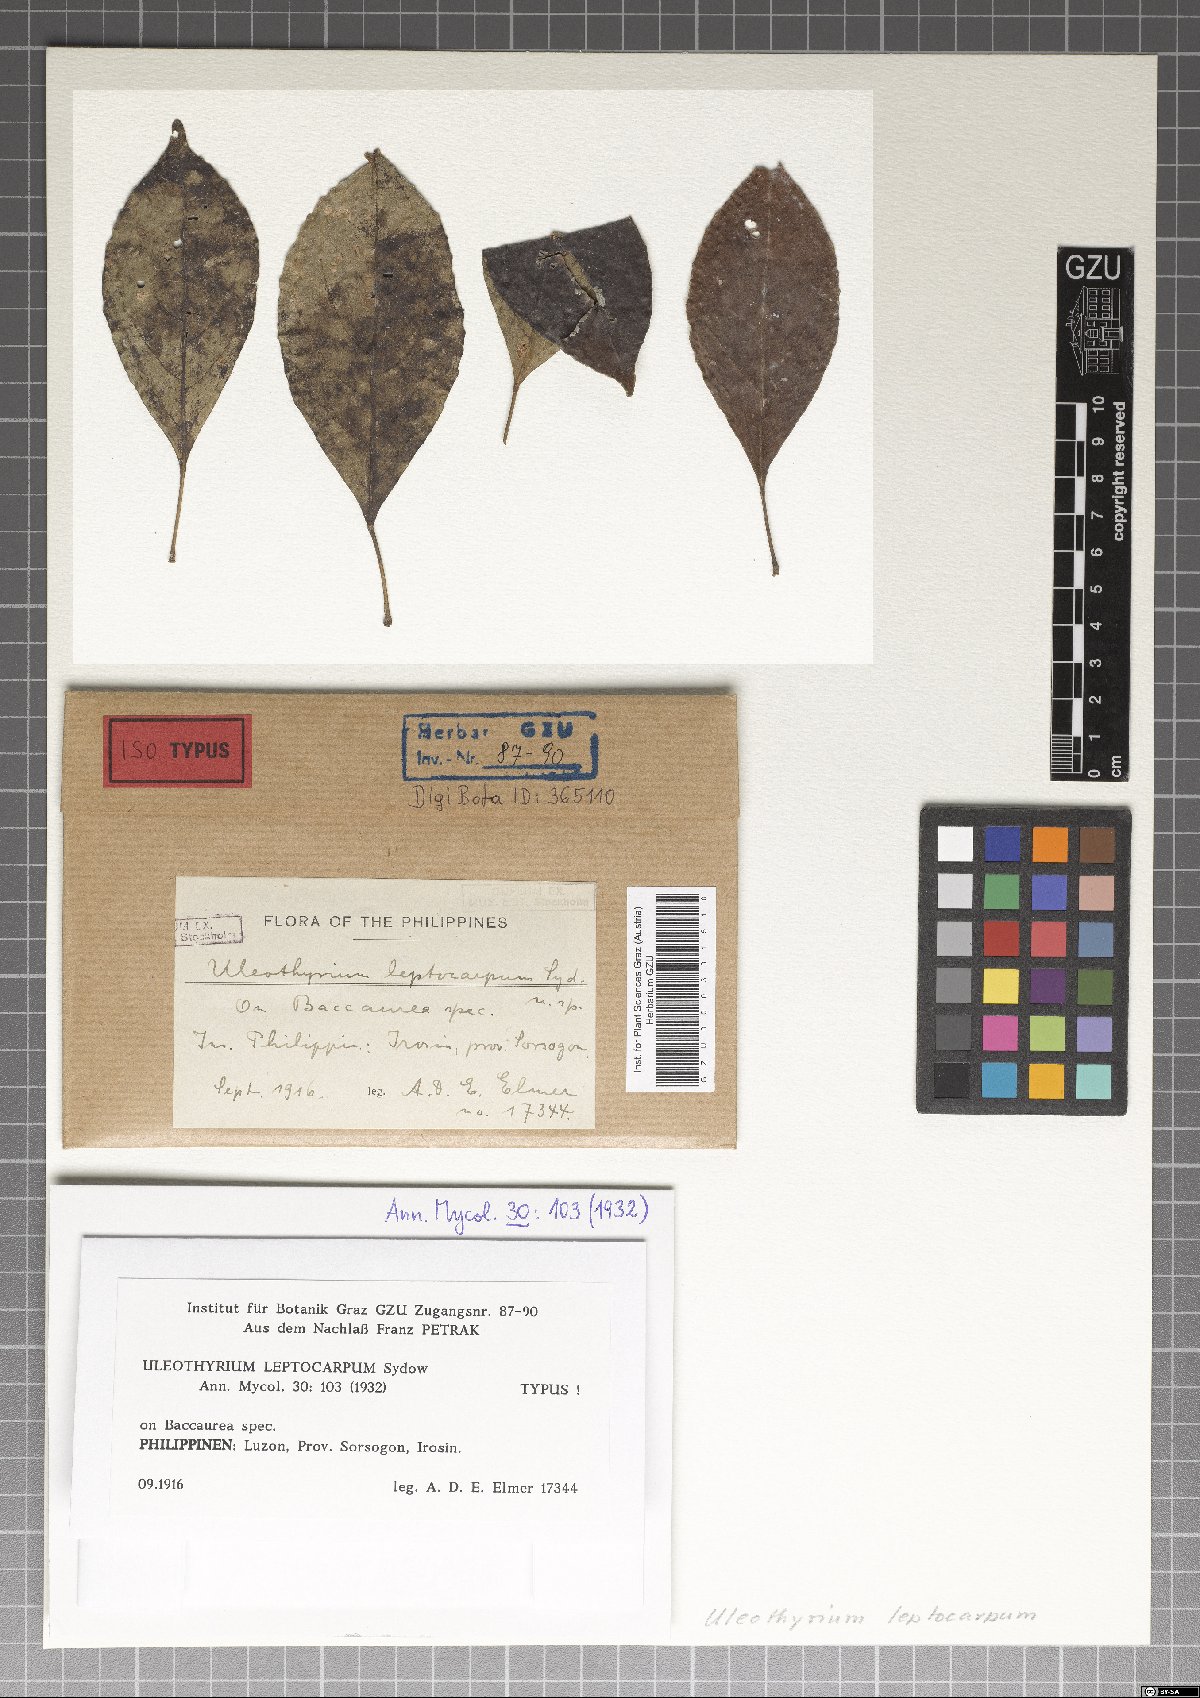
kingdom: Fungi
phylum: Ascomycota
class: Dothideomycetes
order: Asterinales
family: Asterinaceae
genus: Uleothyrium
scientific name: Uleothyrium leptocarpum
